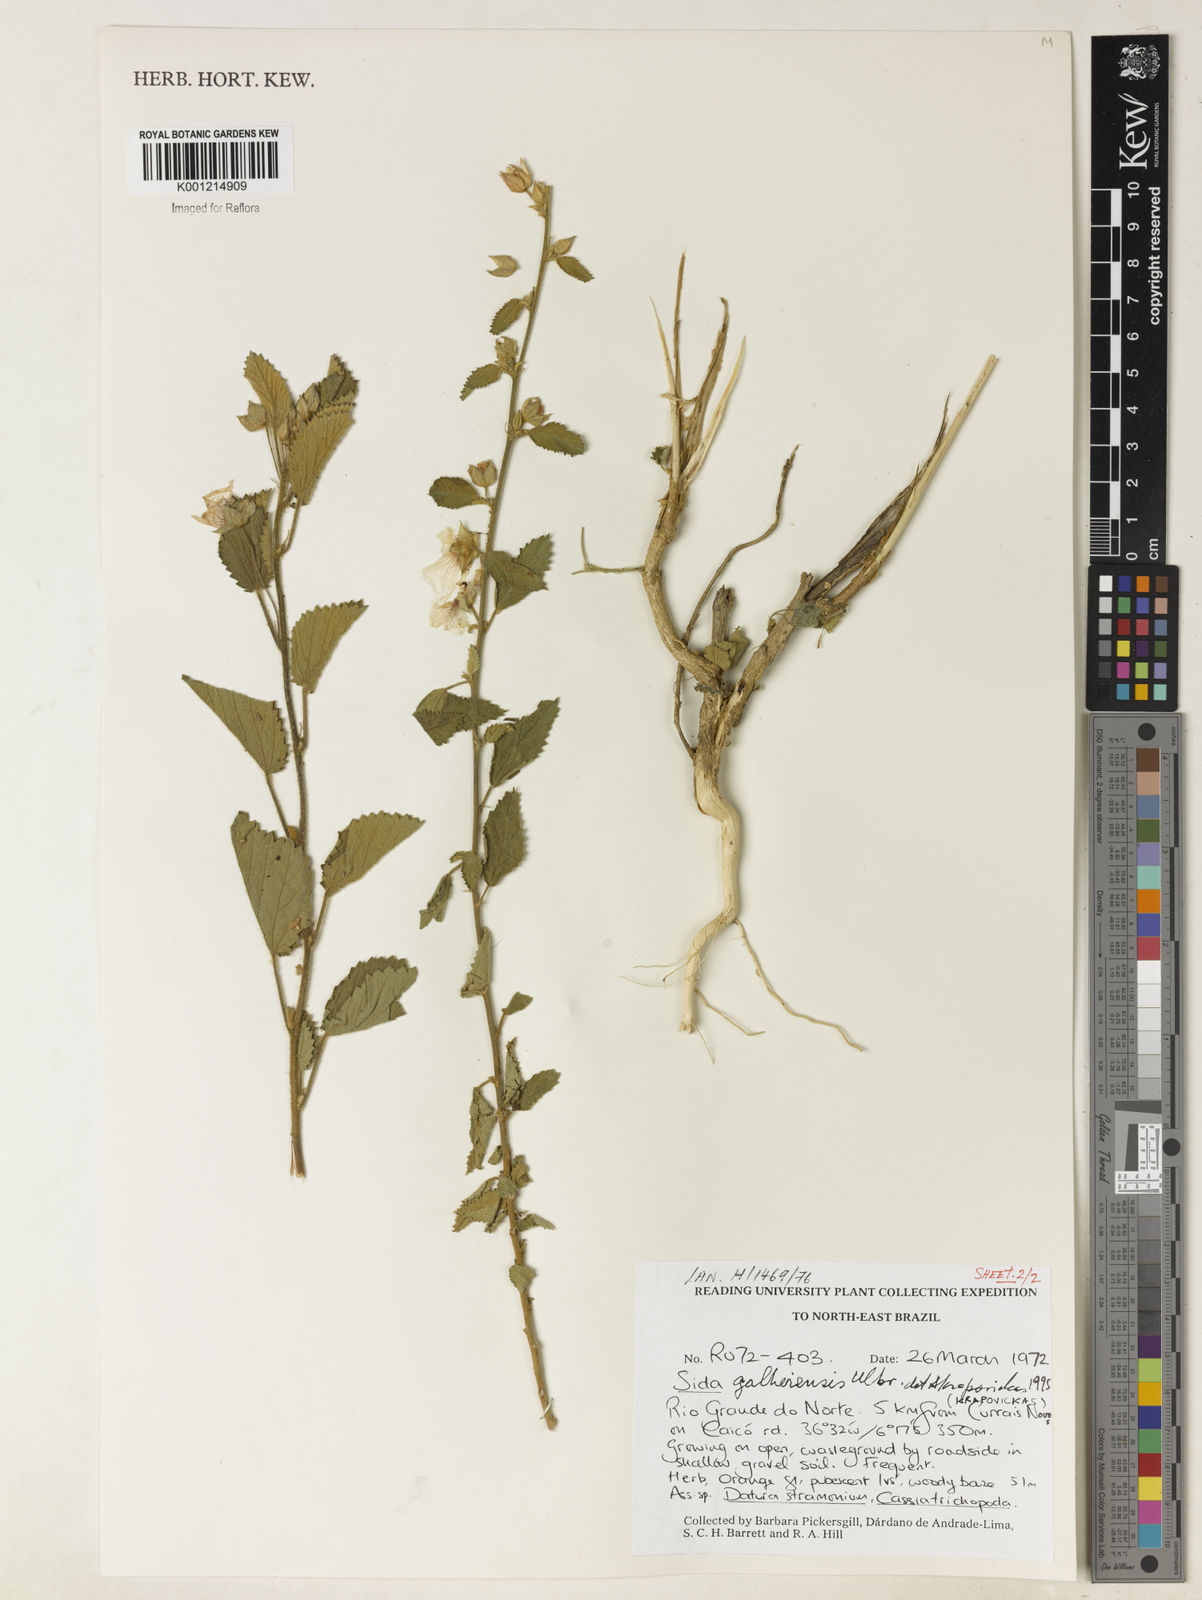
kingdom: Plantae
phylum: Tracheophyta
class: Magnoliopsida
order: Malvales
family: Malvaceae
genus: Sida
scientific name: Sida galheirensis
